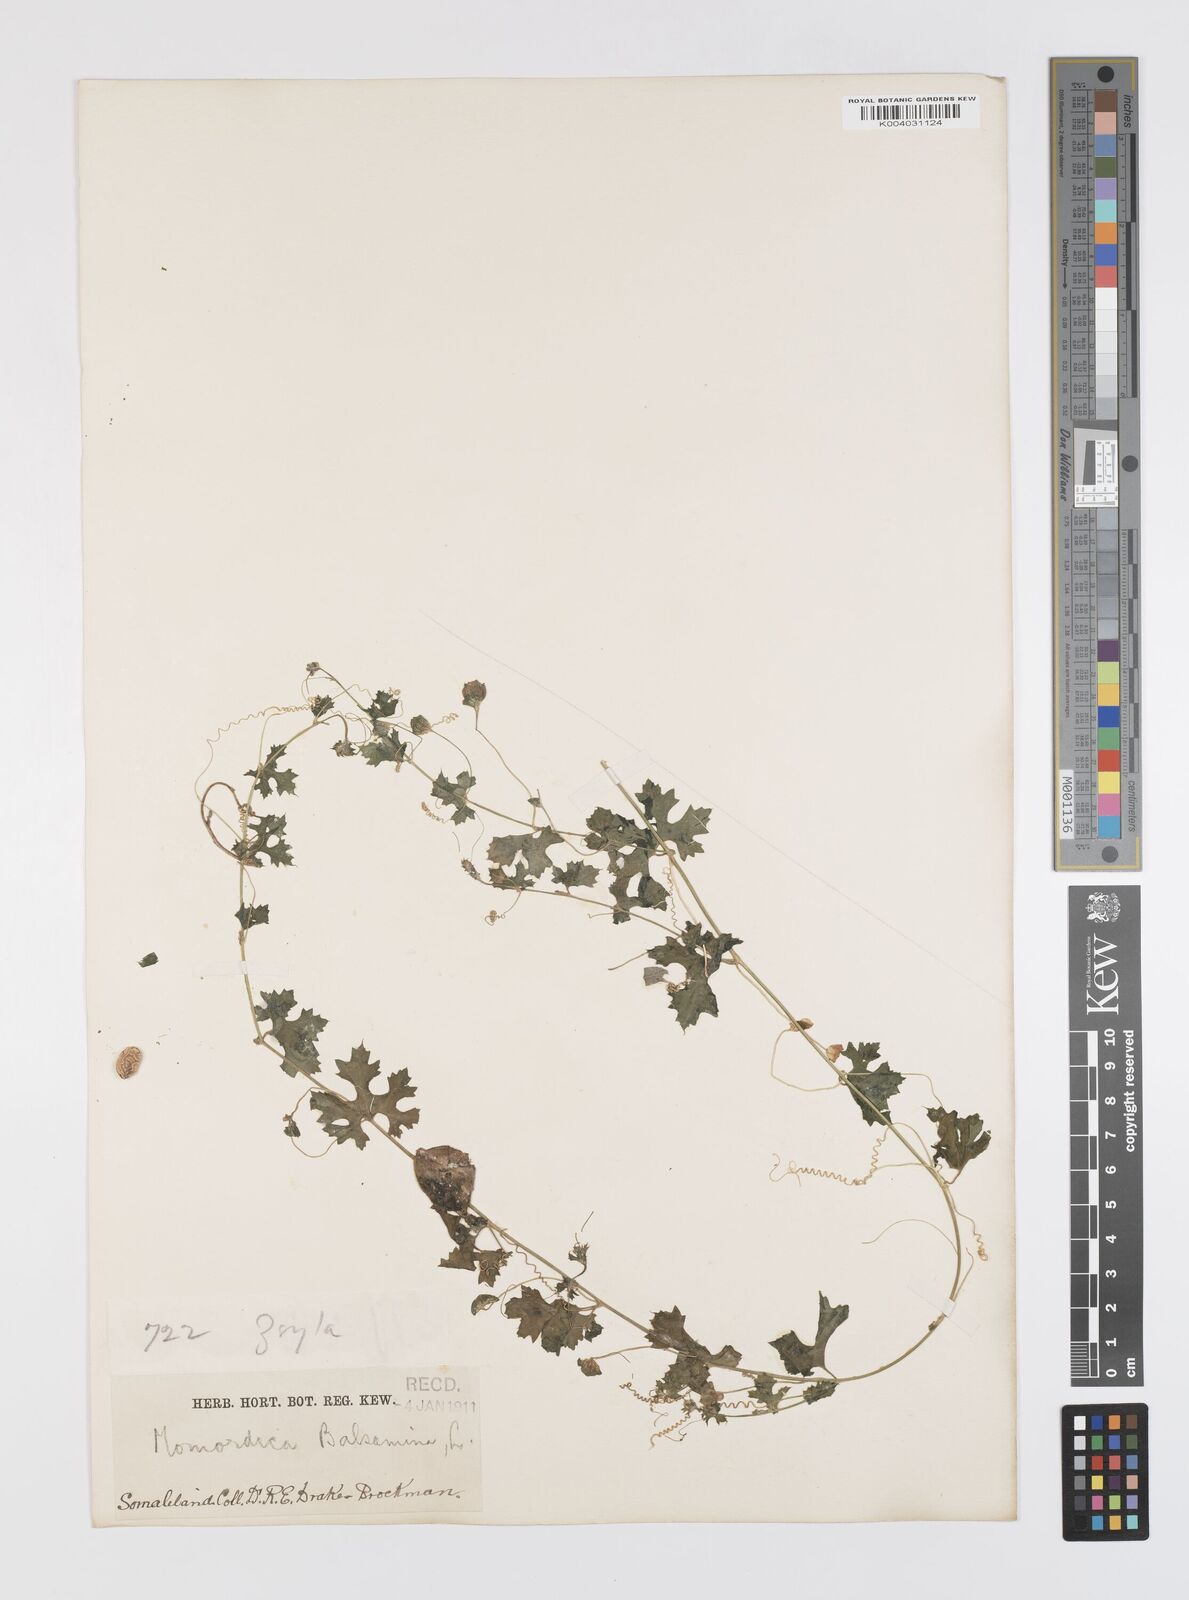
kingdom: Plantae
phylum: Tracheophyta
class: Magnoliopsida
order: Cucurbitales
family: Cucurbitaceae
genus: Momordica
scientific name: Momordica balsamina
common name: Southern balsampear
